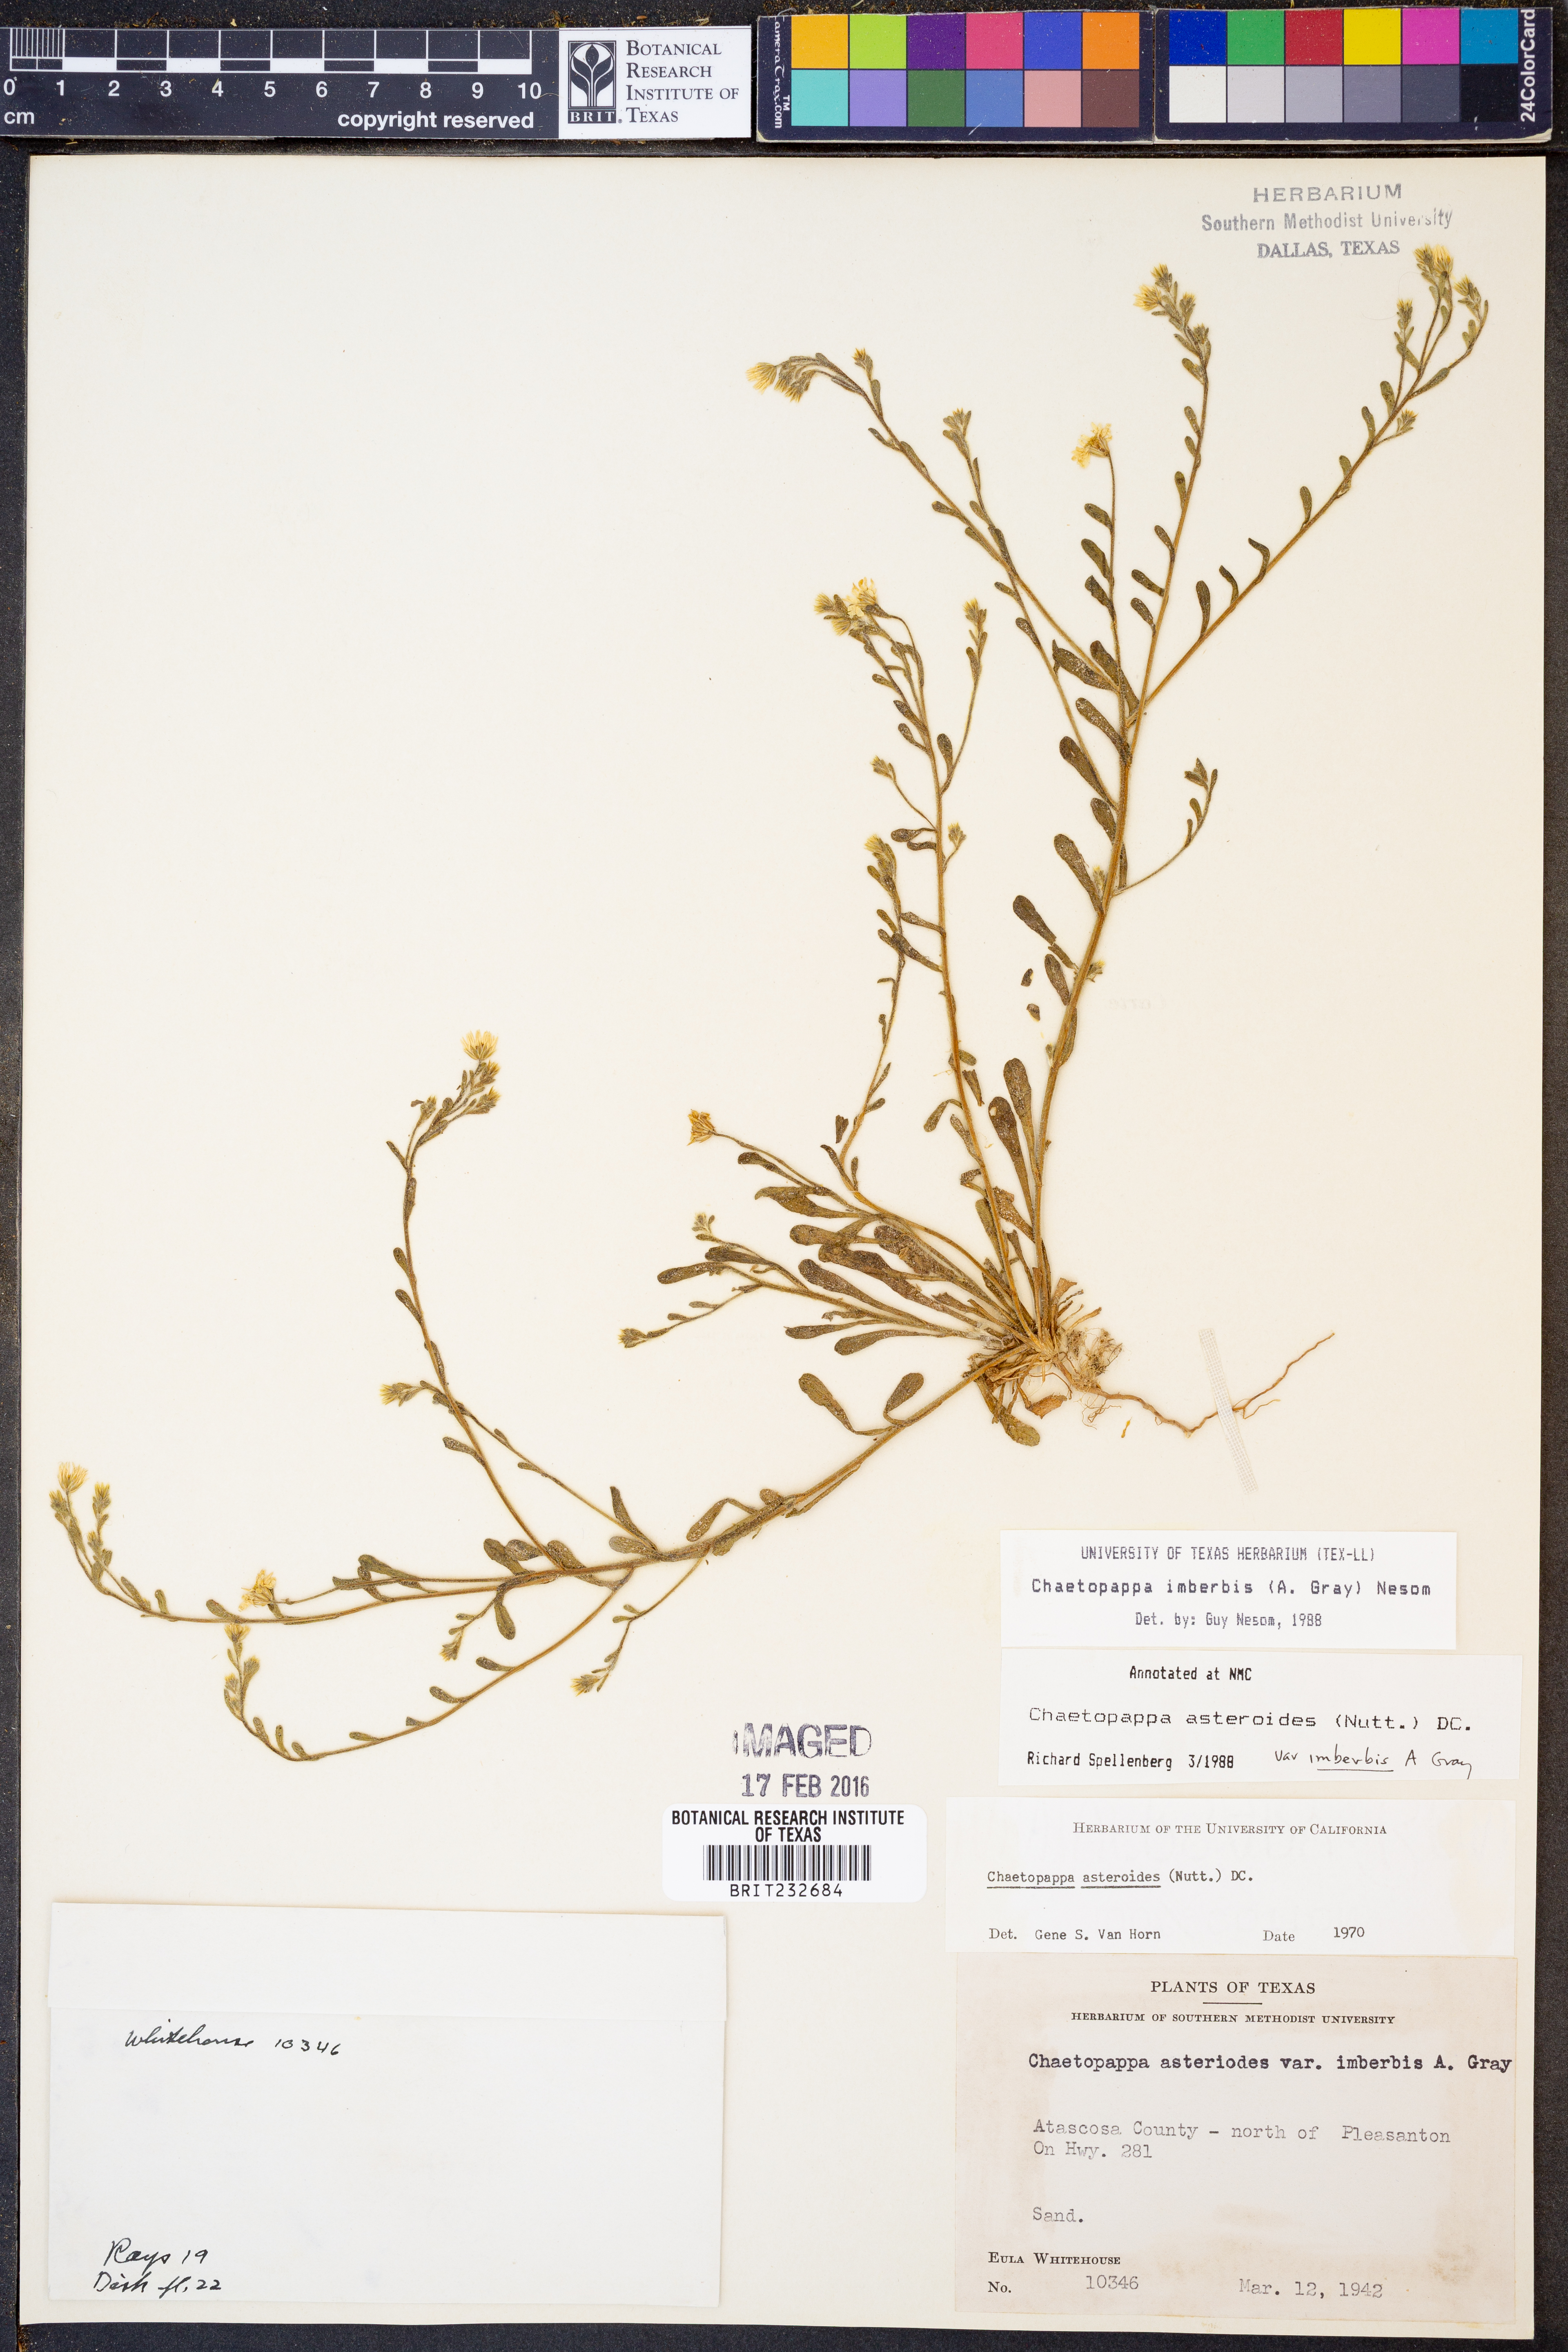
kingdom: Plantae
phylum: Tracheophyta
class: Magnoliopsida
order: Asterales
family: Asteraceae
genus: Chaetopappa
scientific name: Chaetopappa imberbis
